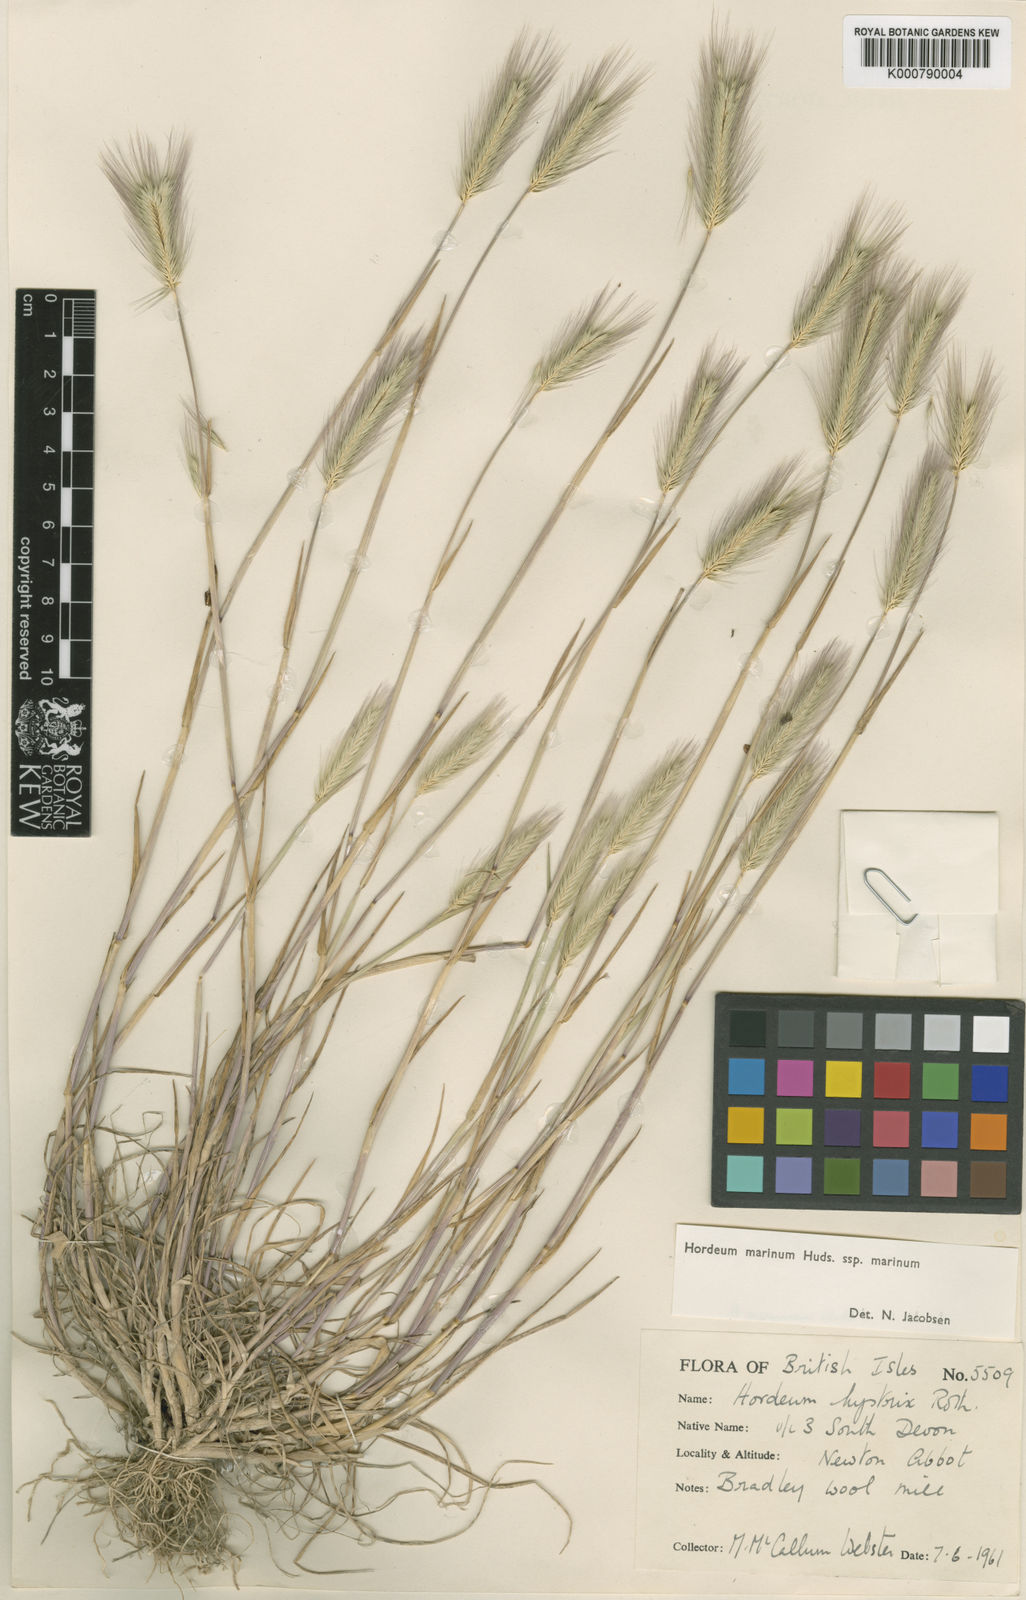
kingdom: Plantae
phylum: Tracheophyta
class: Liliopsida
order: Poales
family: Poaceae
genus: Hordeum
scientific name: Hordeum marinum
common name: Sea barley
